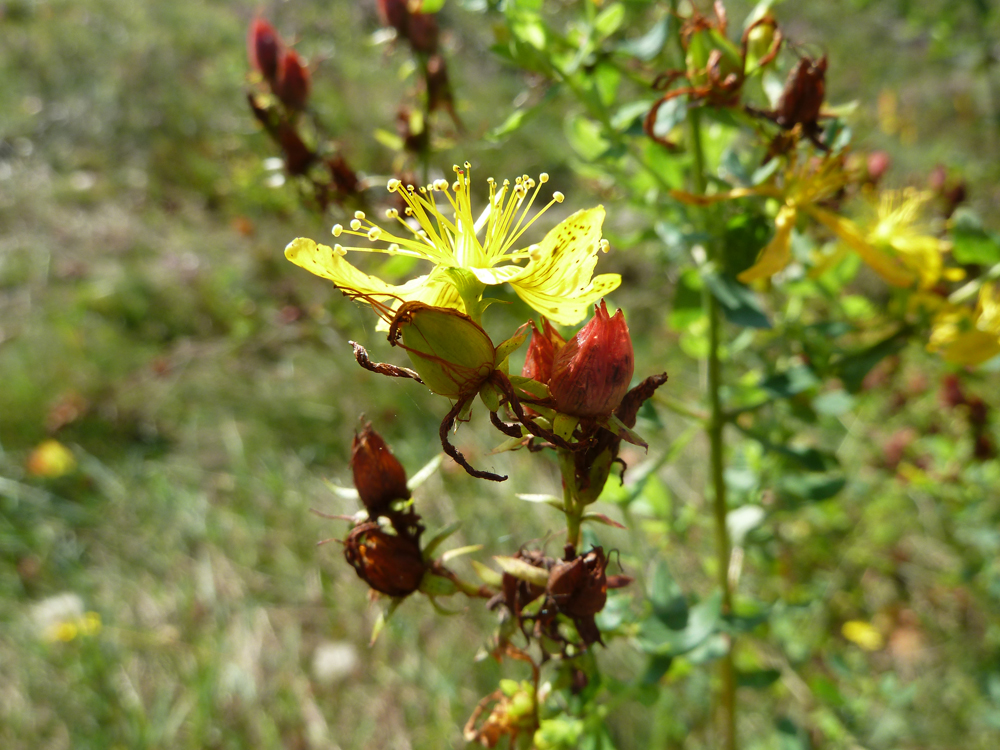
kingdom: Plantae
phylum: Tracheophyta
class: Magnoliopsida
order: Malpighiales
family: Hypericaceae
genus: Hypericum
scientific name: Hypericum perforatum
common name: Common st. johnswort
